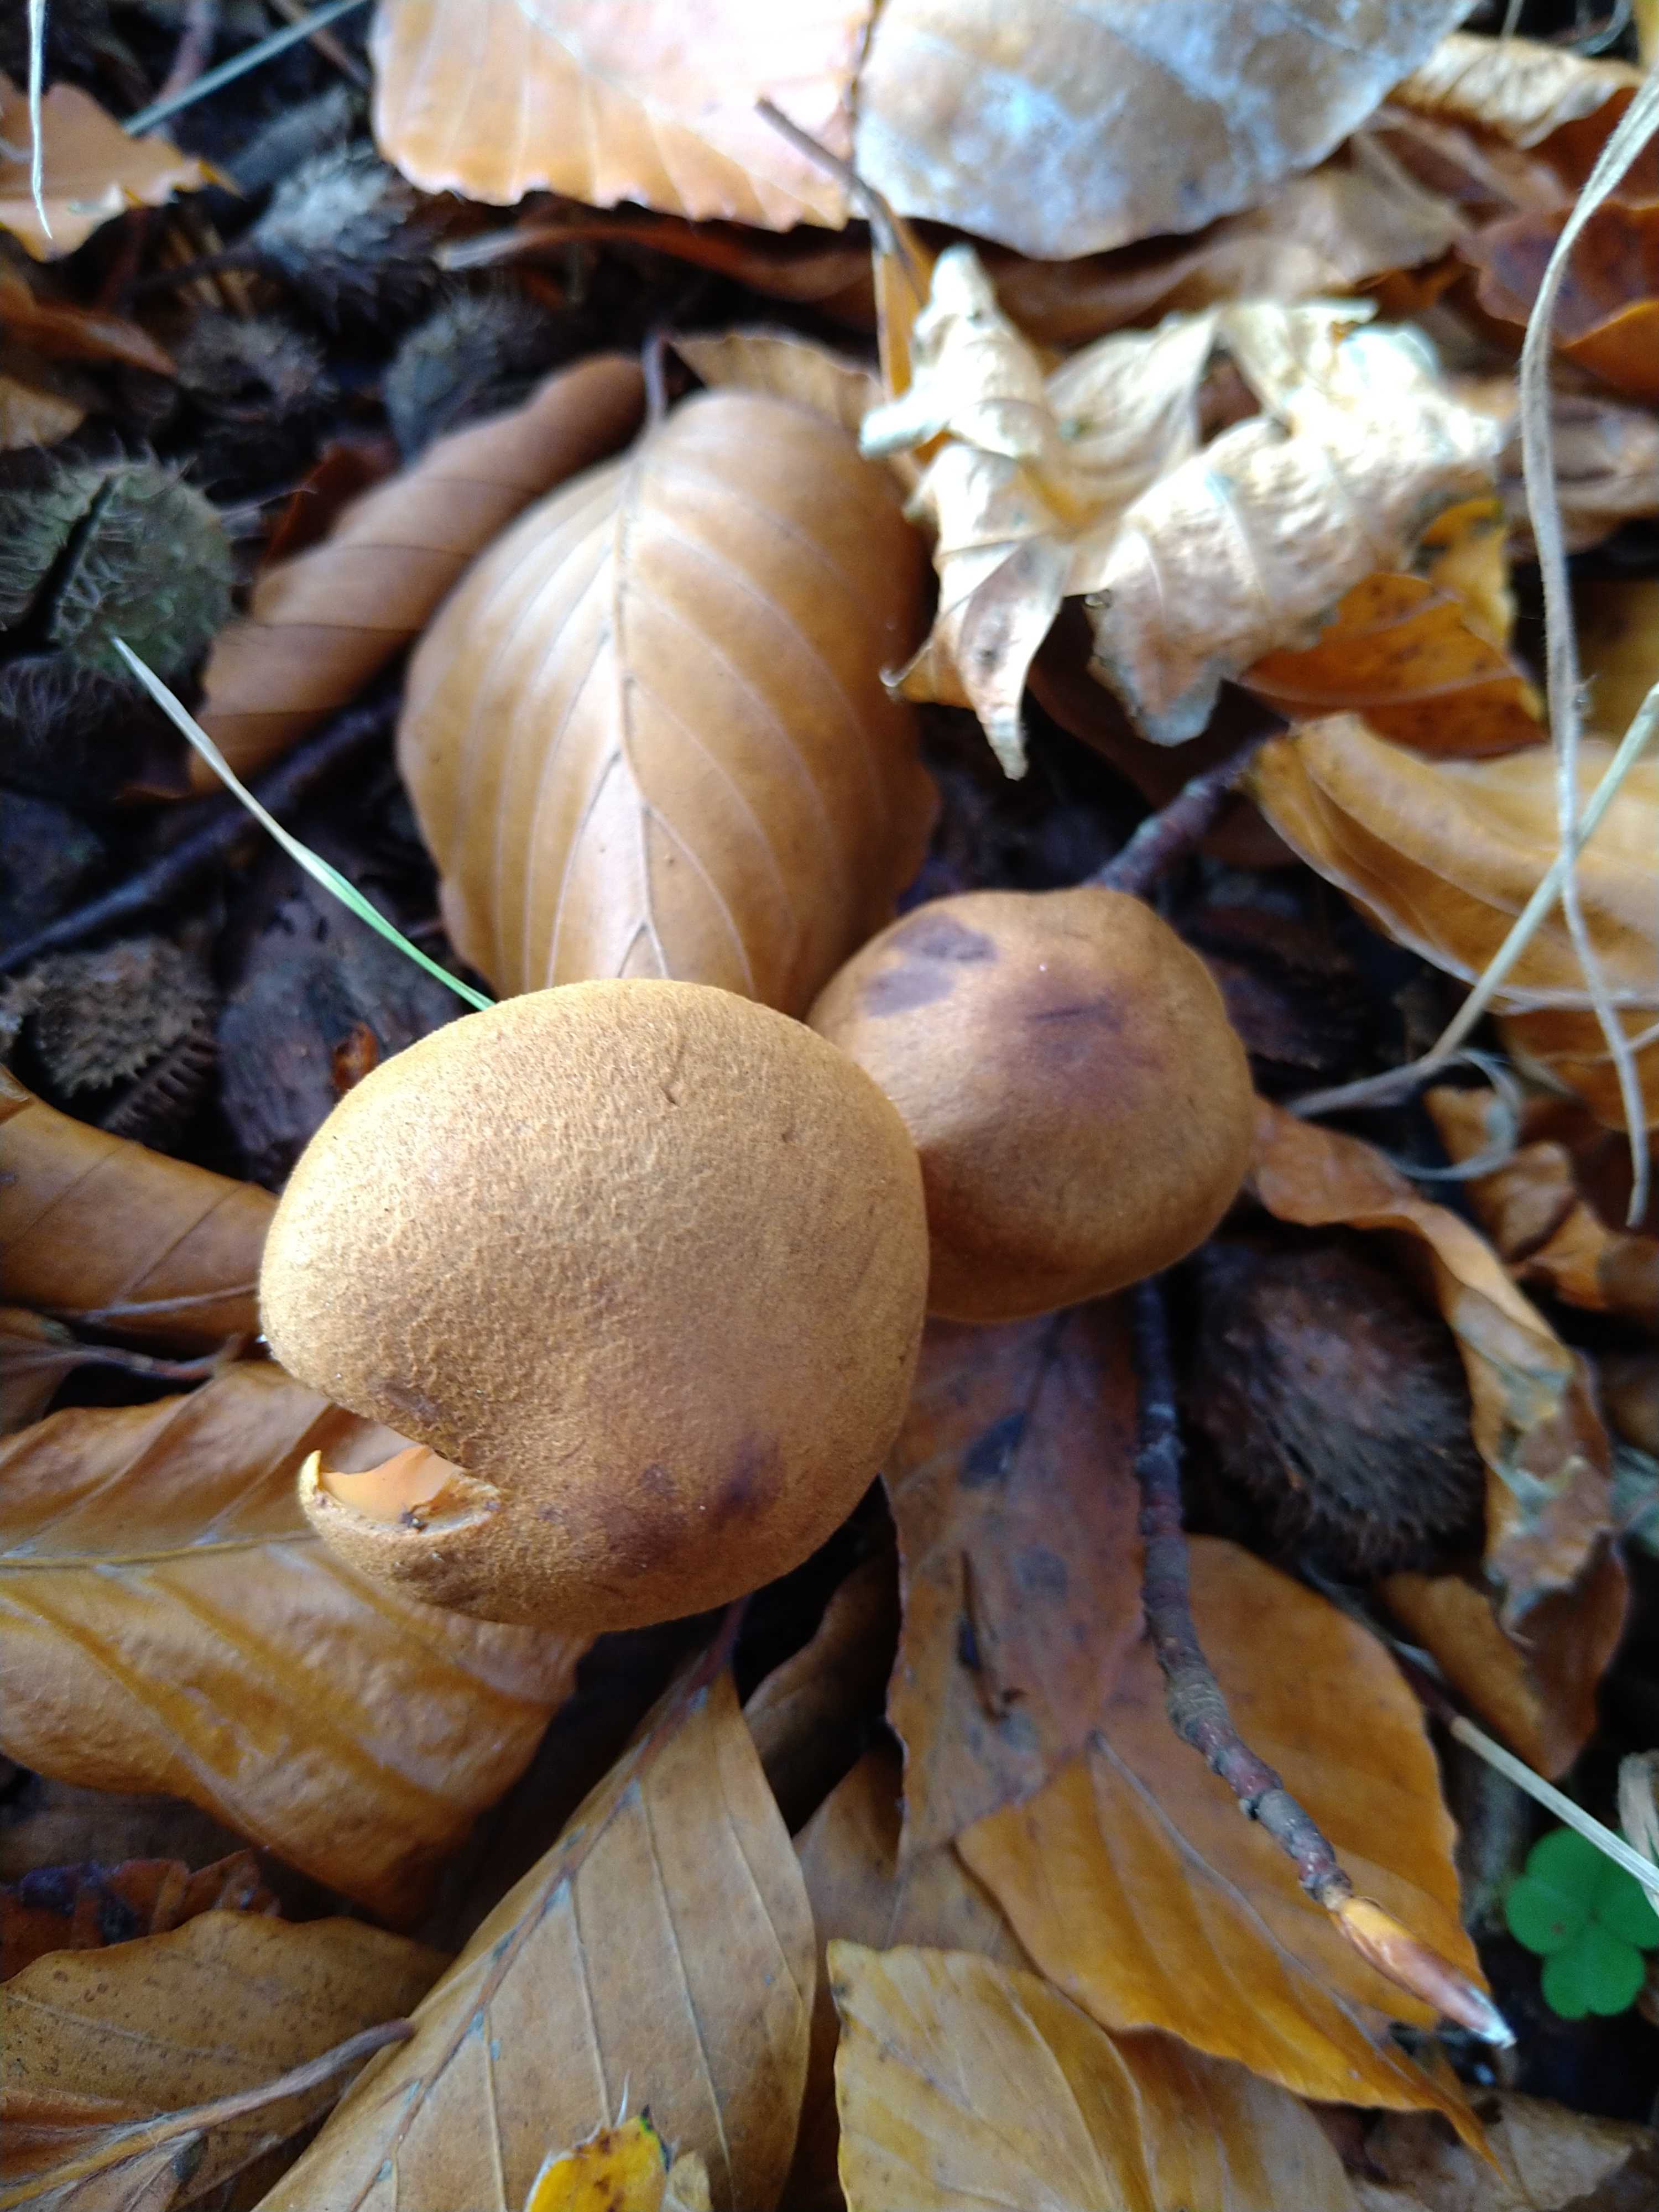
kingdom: Fungi
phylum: Basidiomycota
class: Agaricomycetes
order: Agaricales
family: Cortinariaceae
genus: Cortinarius
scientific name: Cortinarius cinnamomeus
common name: kanel-slørhat
